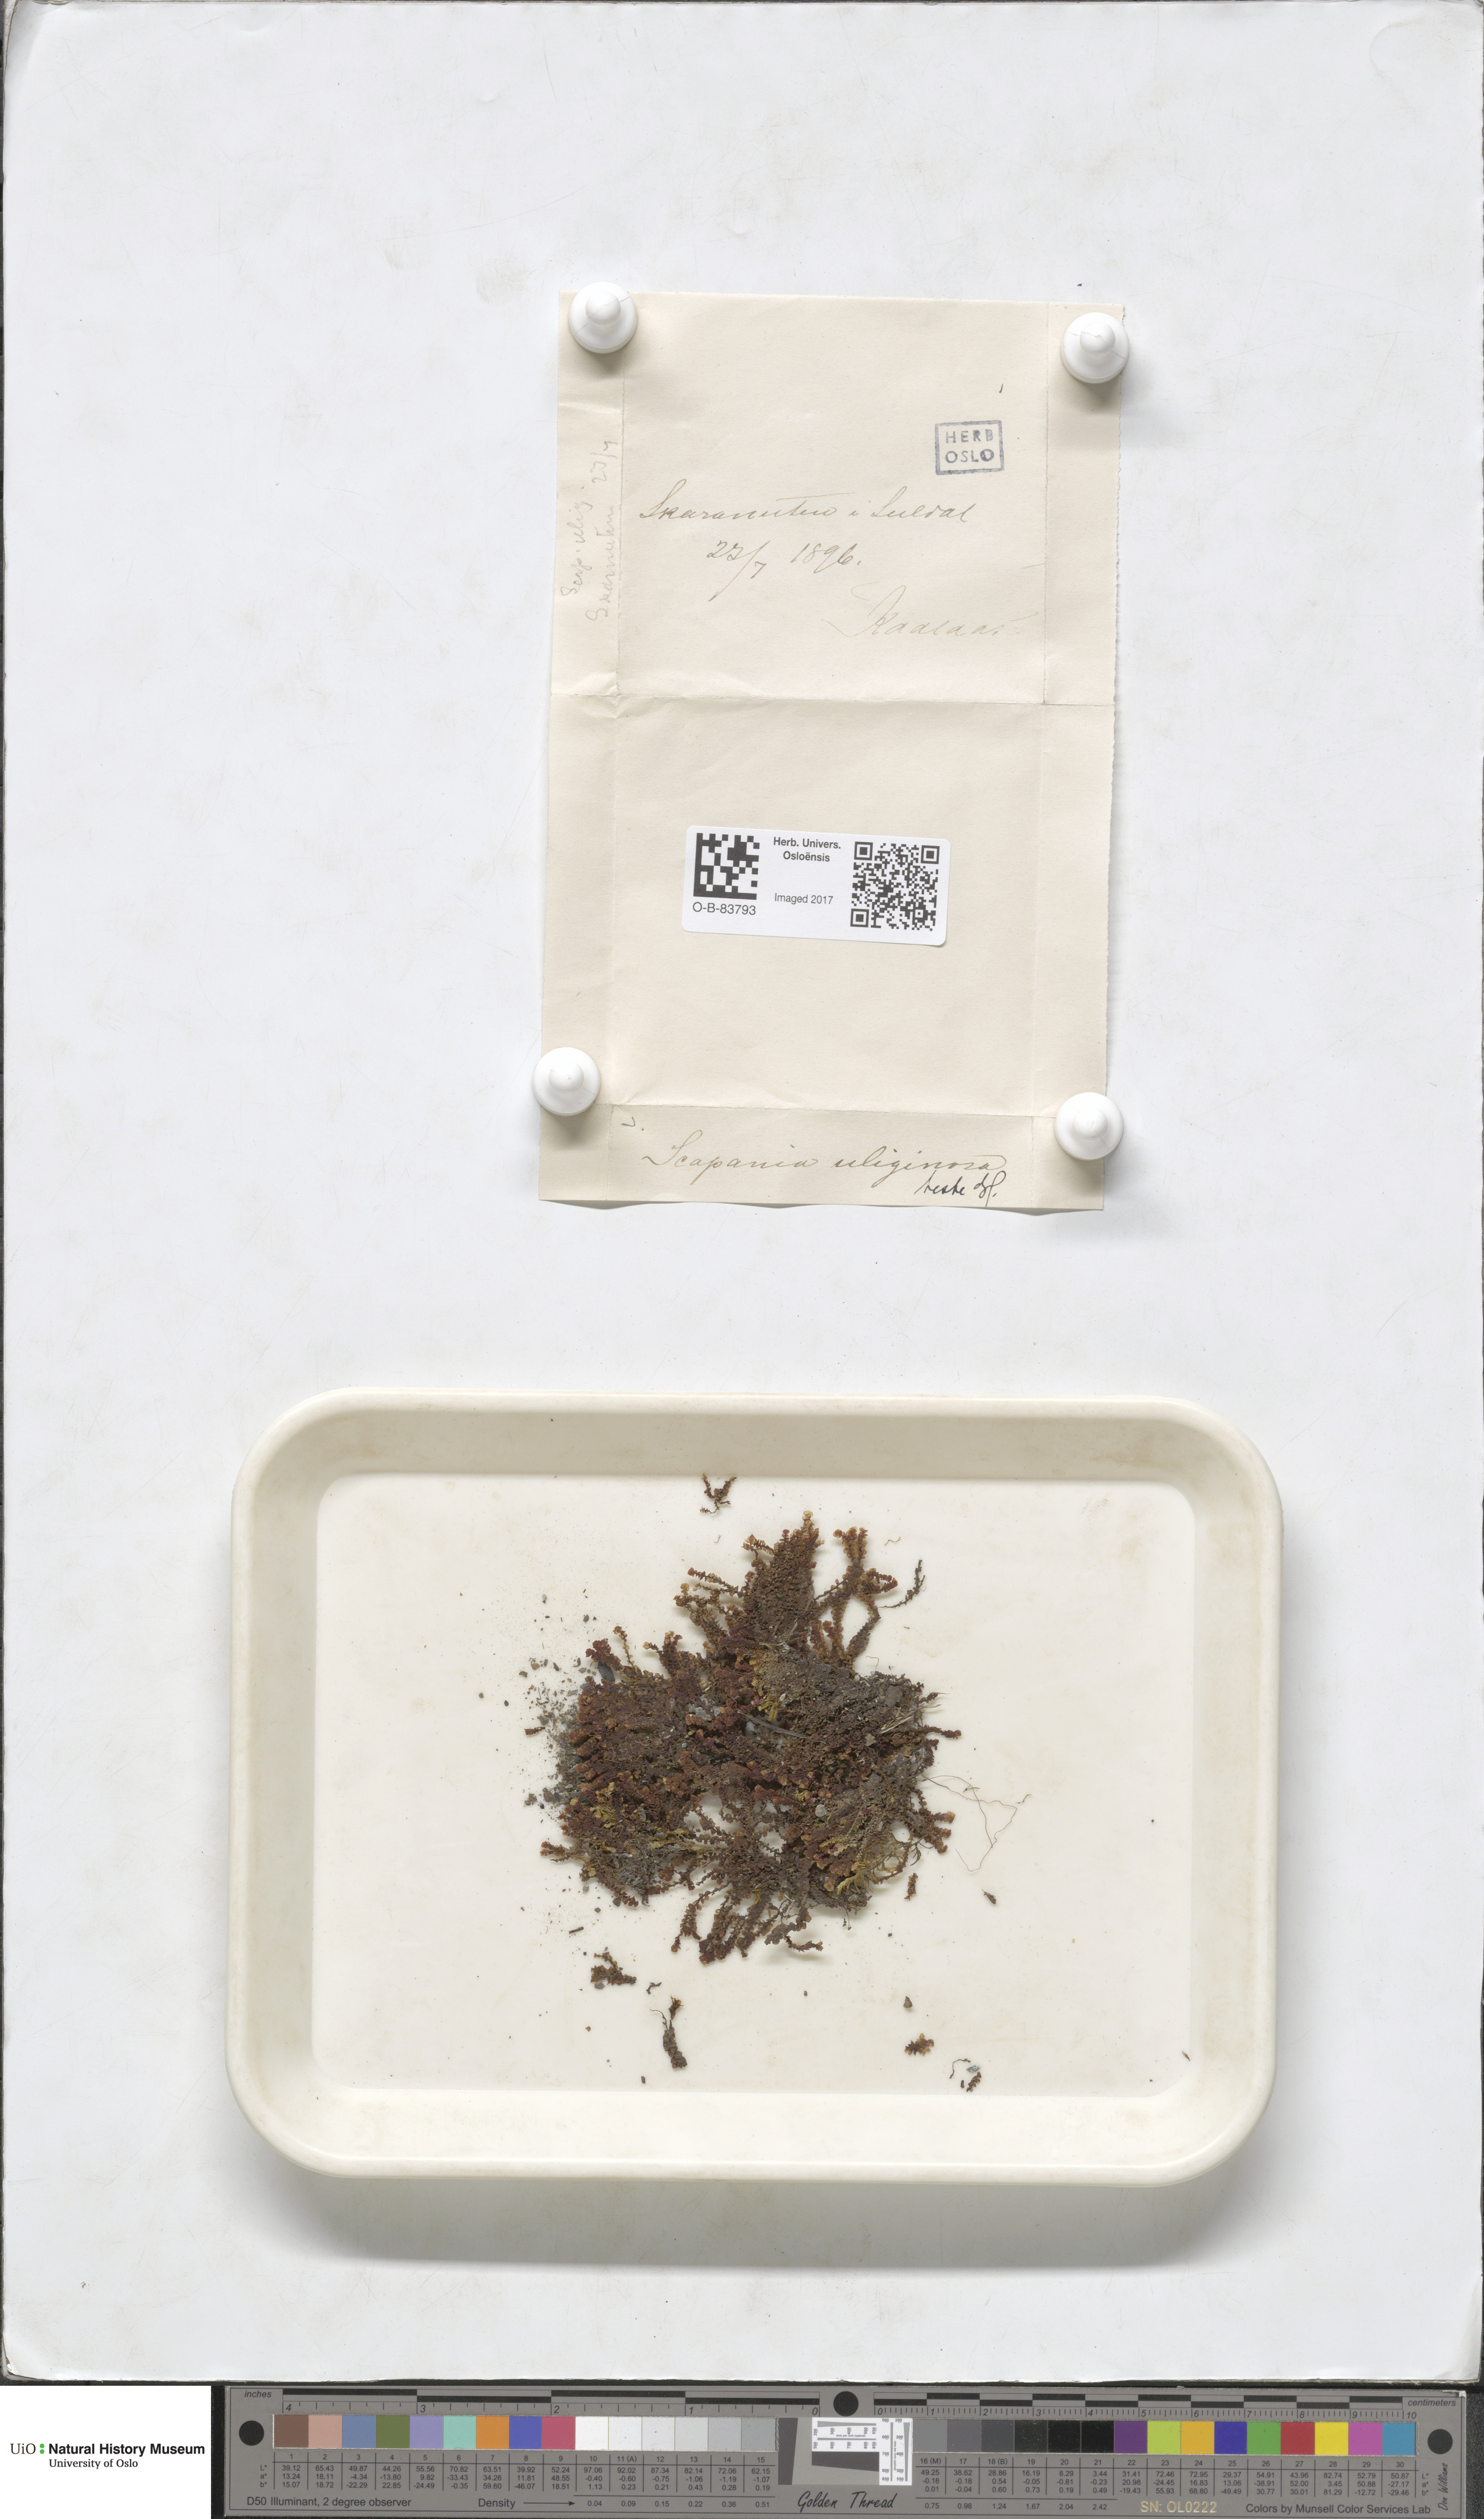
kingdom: Plantae
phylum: Marchantiophyta
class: Jungermanniopsida
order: Jungermanniales
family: Scapaniaceae
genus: Scapania
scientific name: Scapania uliginosa
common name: Marsh earwort
